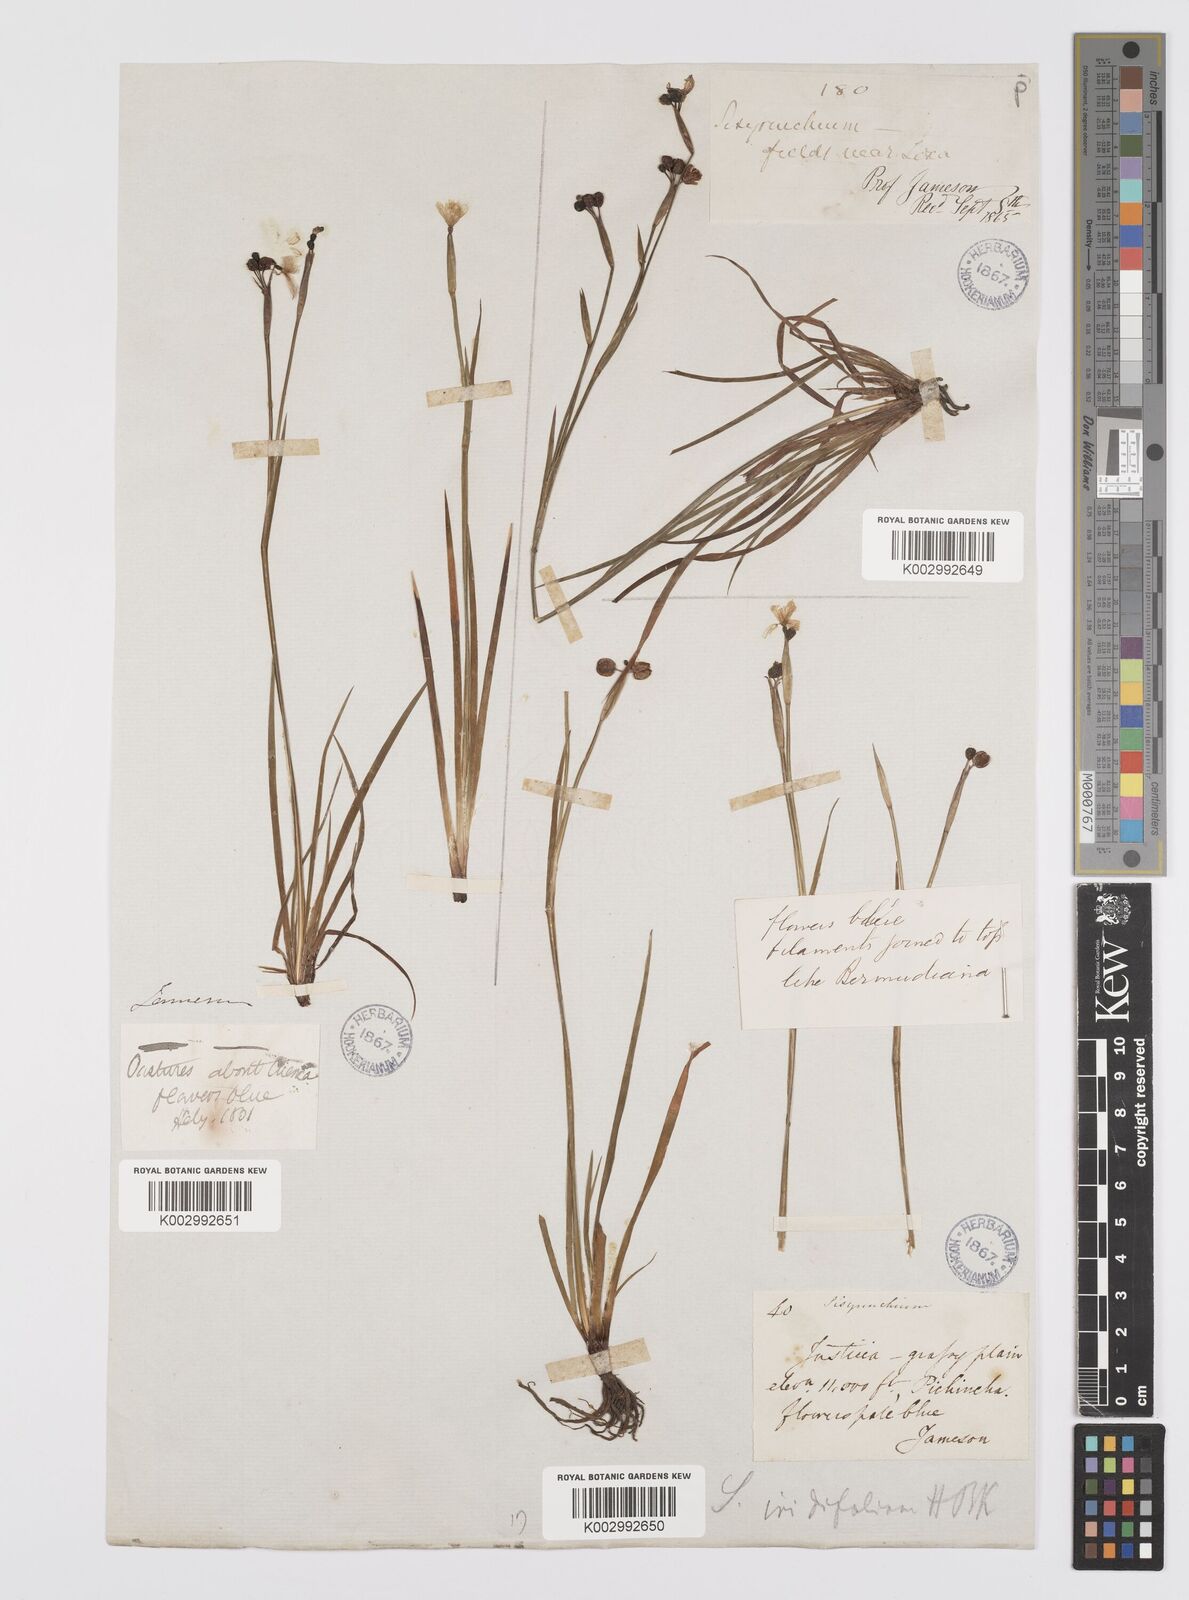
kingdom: Plantae
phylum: Tracheophyta
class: Liliopsida
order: Asparagales
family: Iridaceae
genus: Sisyrinchium
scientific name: Sisyrinchium
